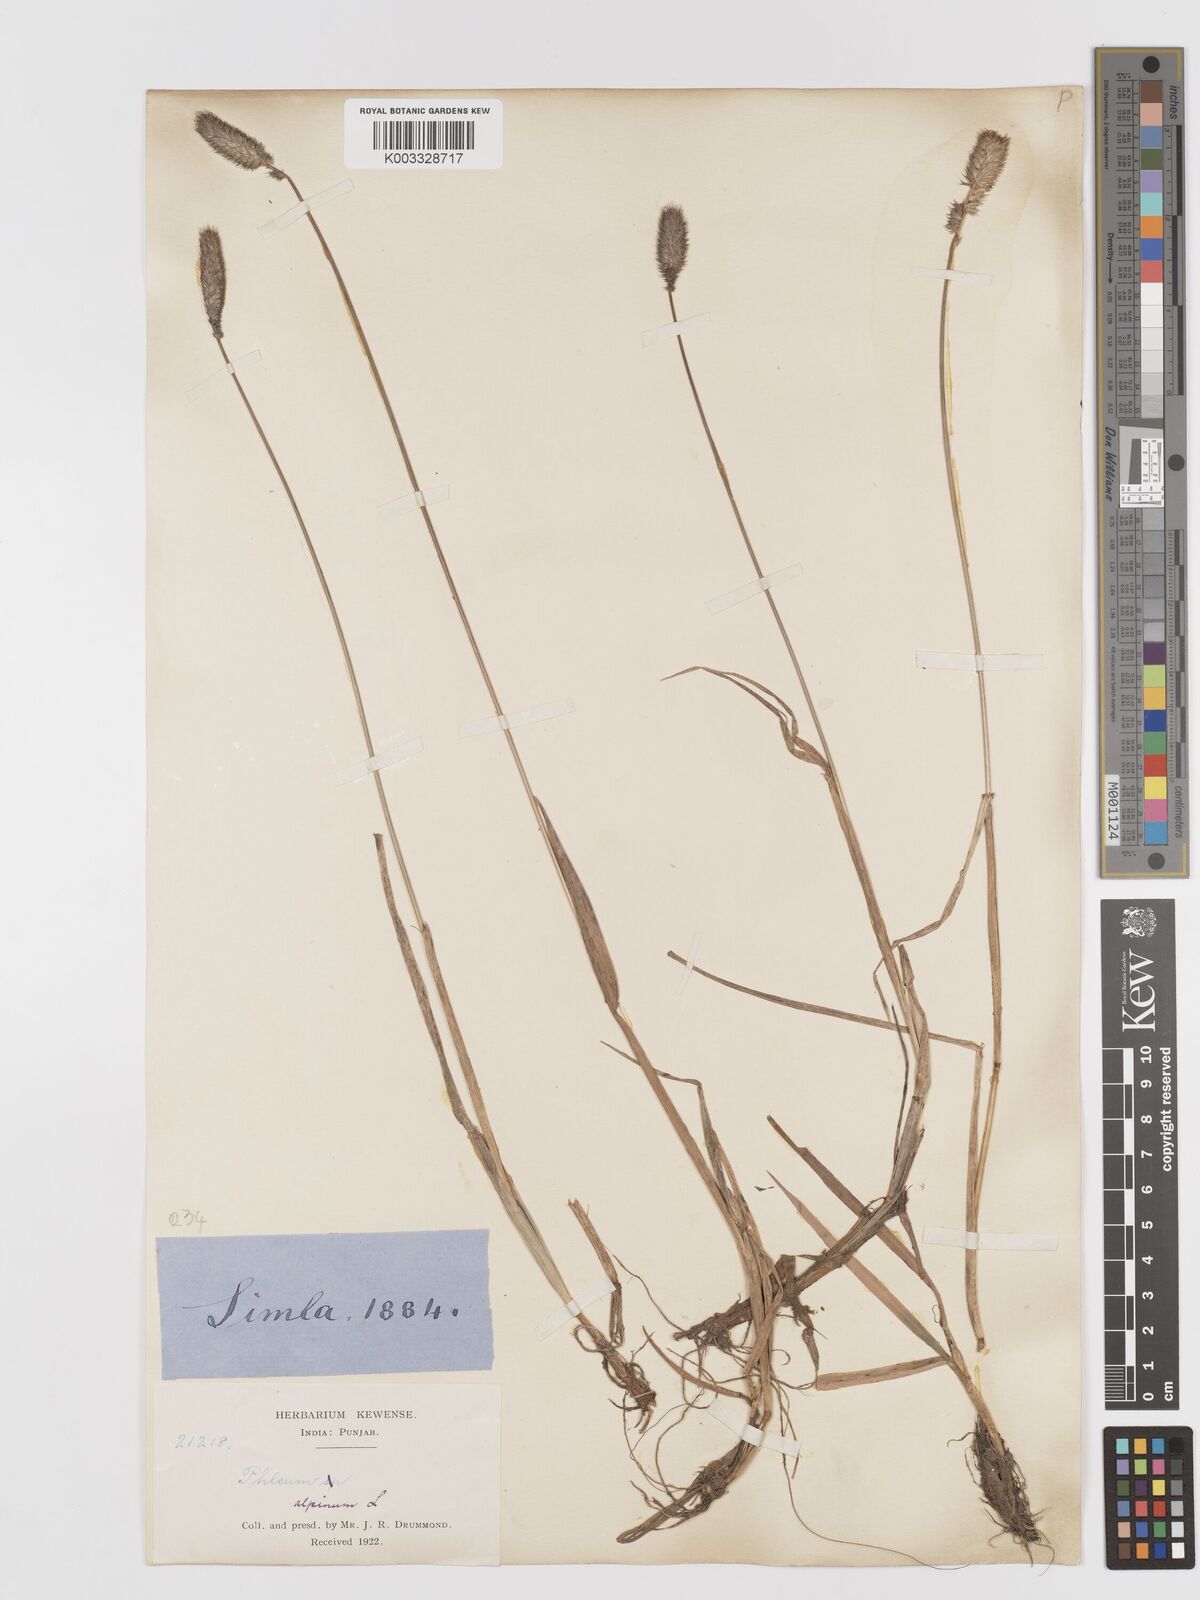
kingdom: Plantae
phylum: Tracheophyta
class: Liliopsida
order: Poales
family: Poaceae
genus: Phleum
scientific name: Phleum alpinum
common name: Alpine cat's-tail
